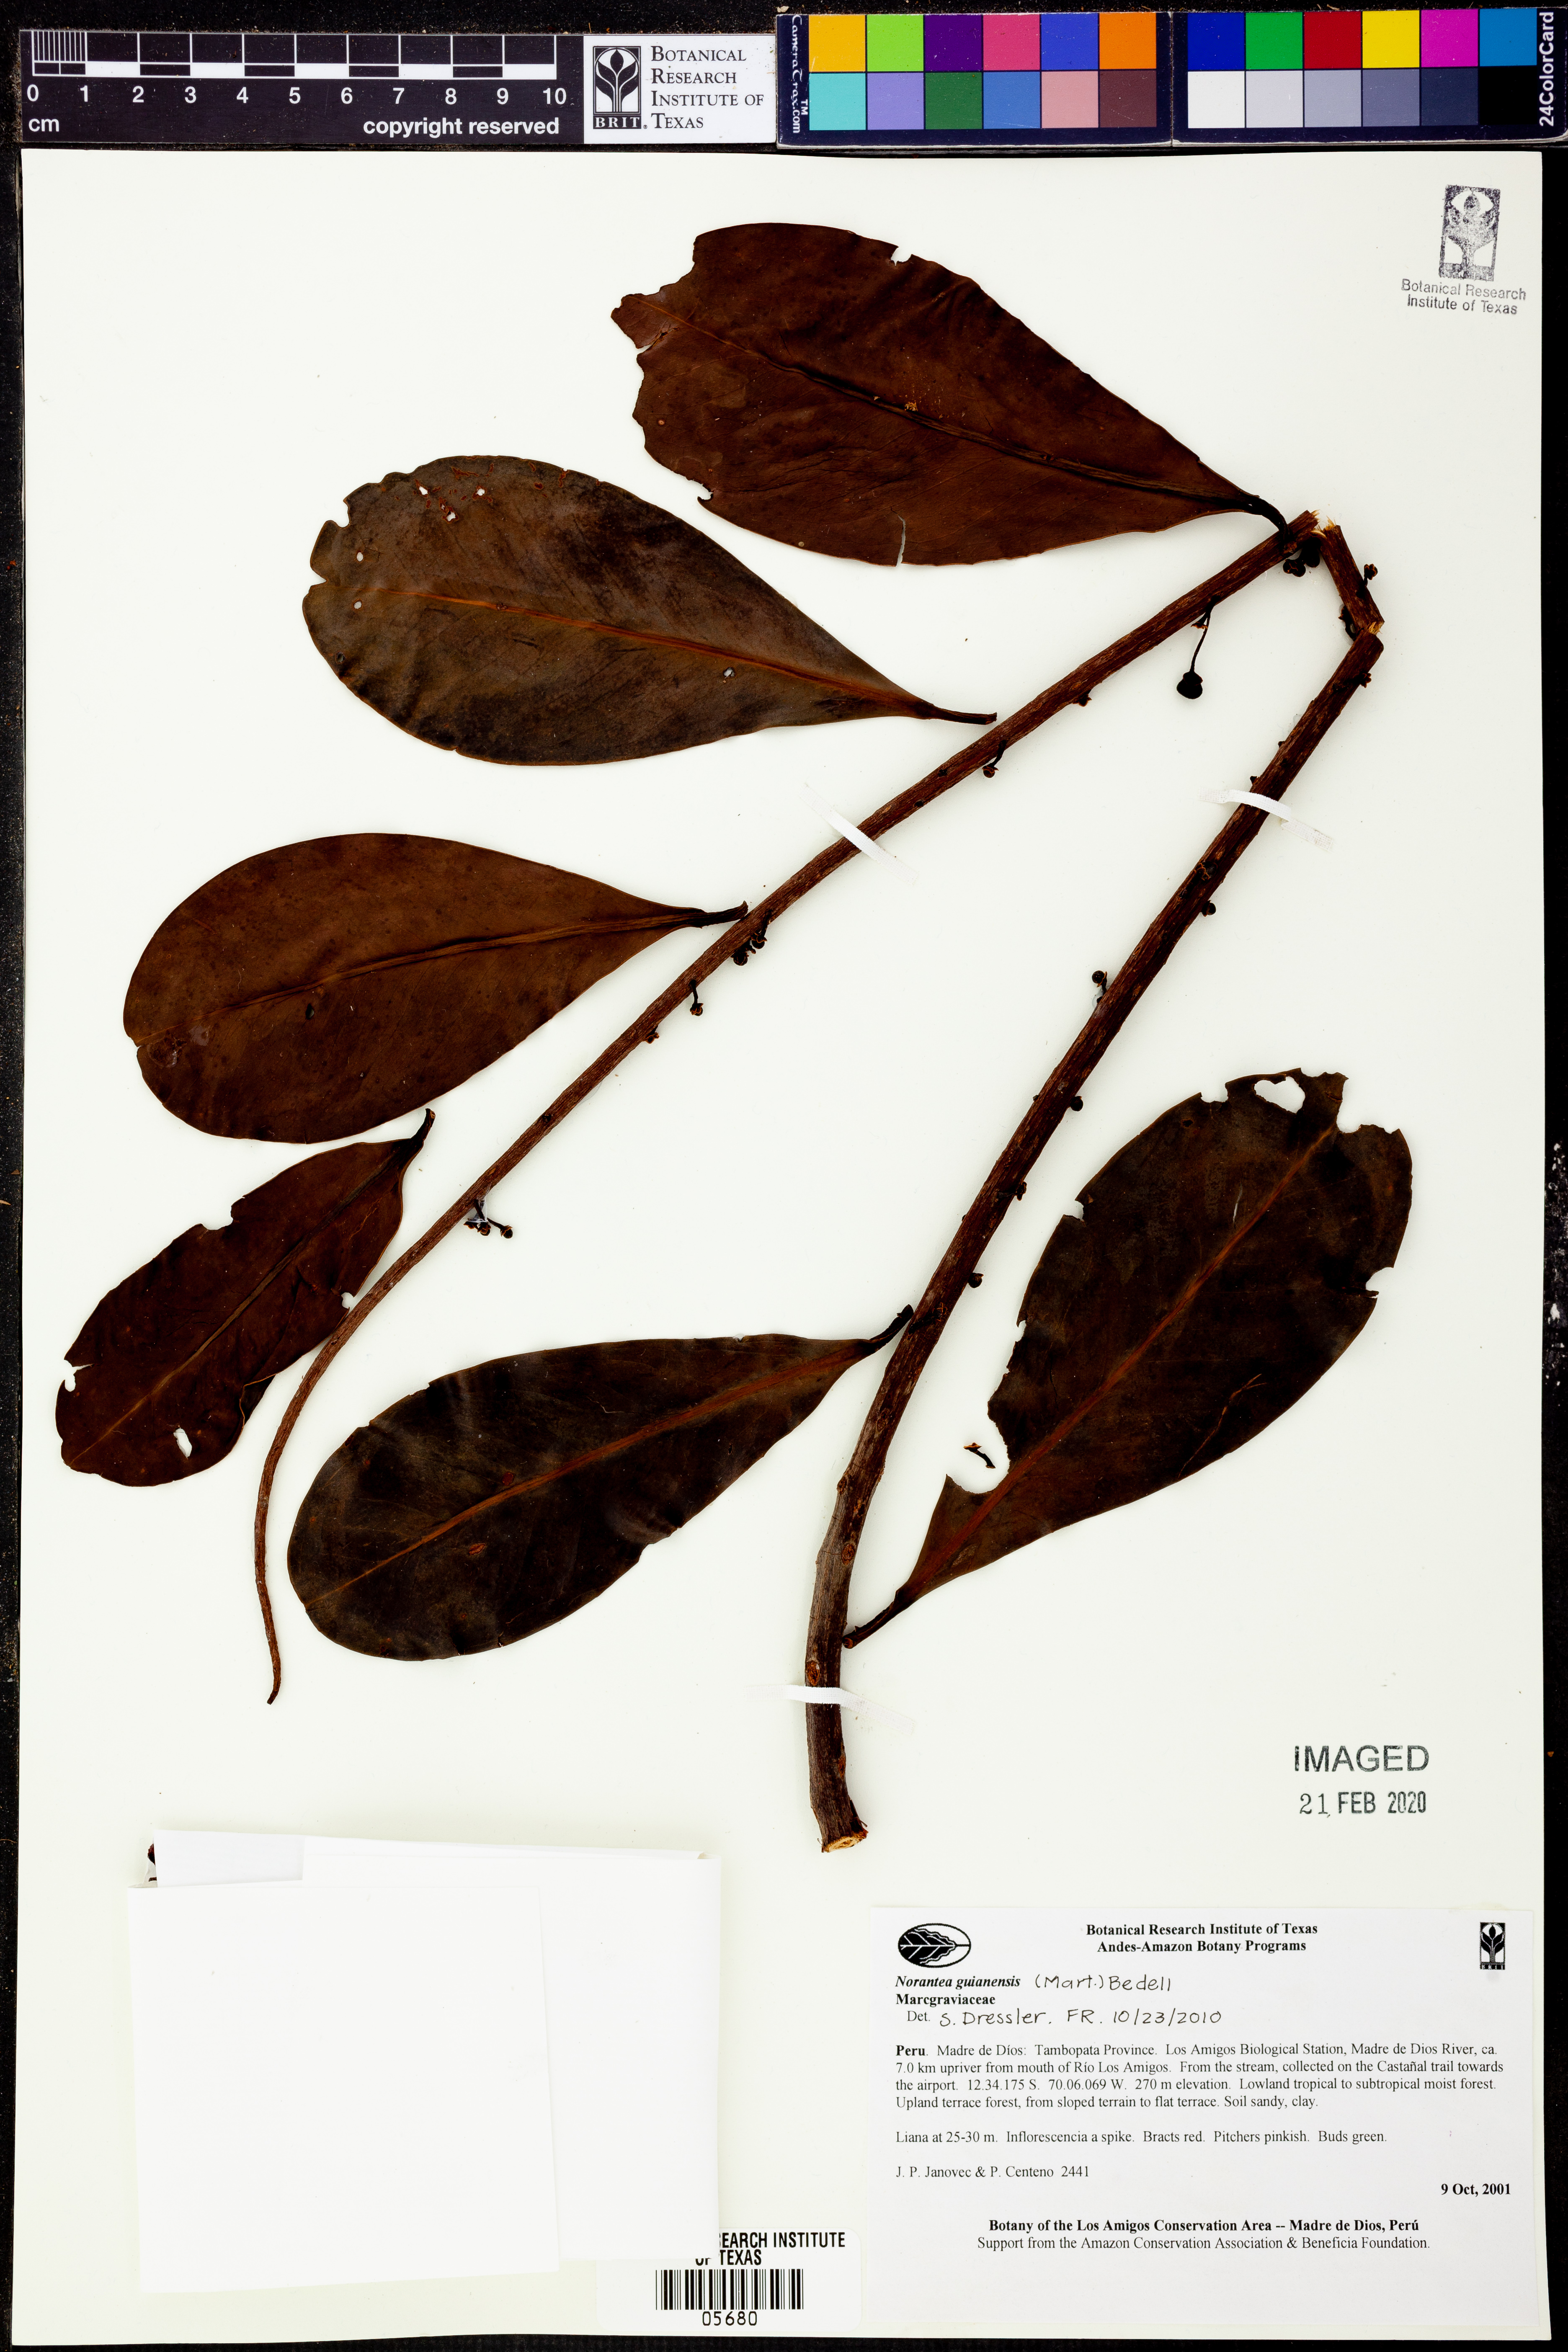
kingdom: Plantae
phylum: Tracheophyta
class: Magnoliopsida
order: Ericales
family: Marcgraviaceae
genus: Norantea
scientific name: Norantea
